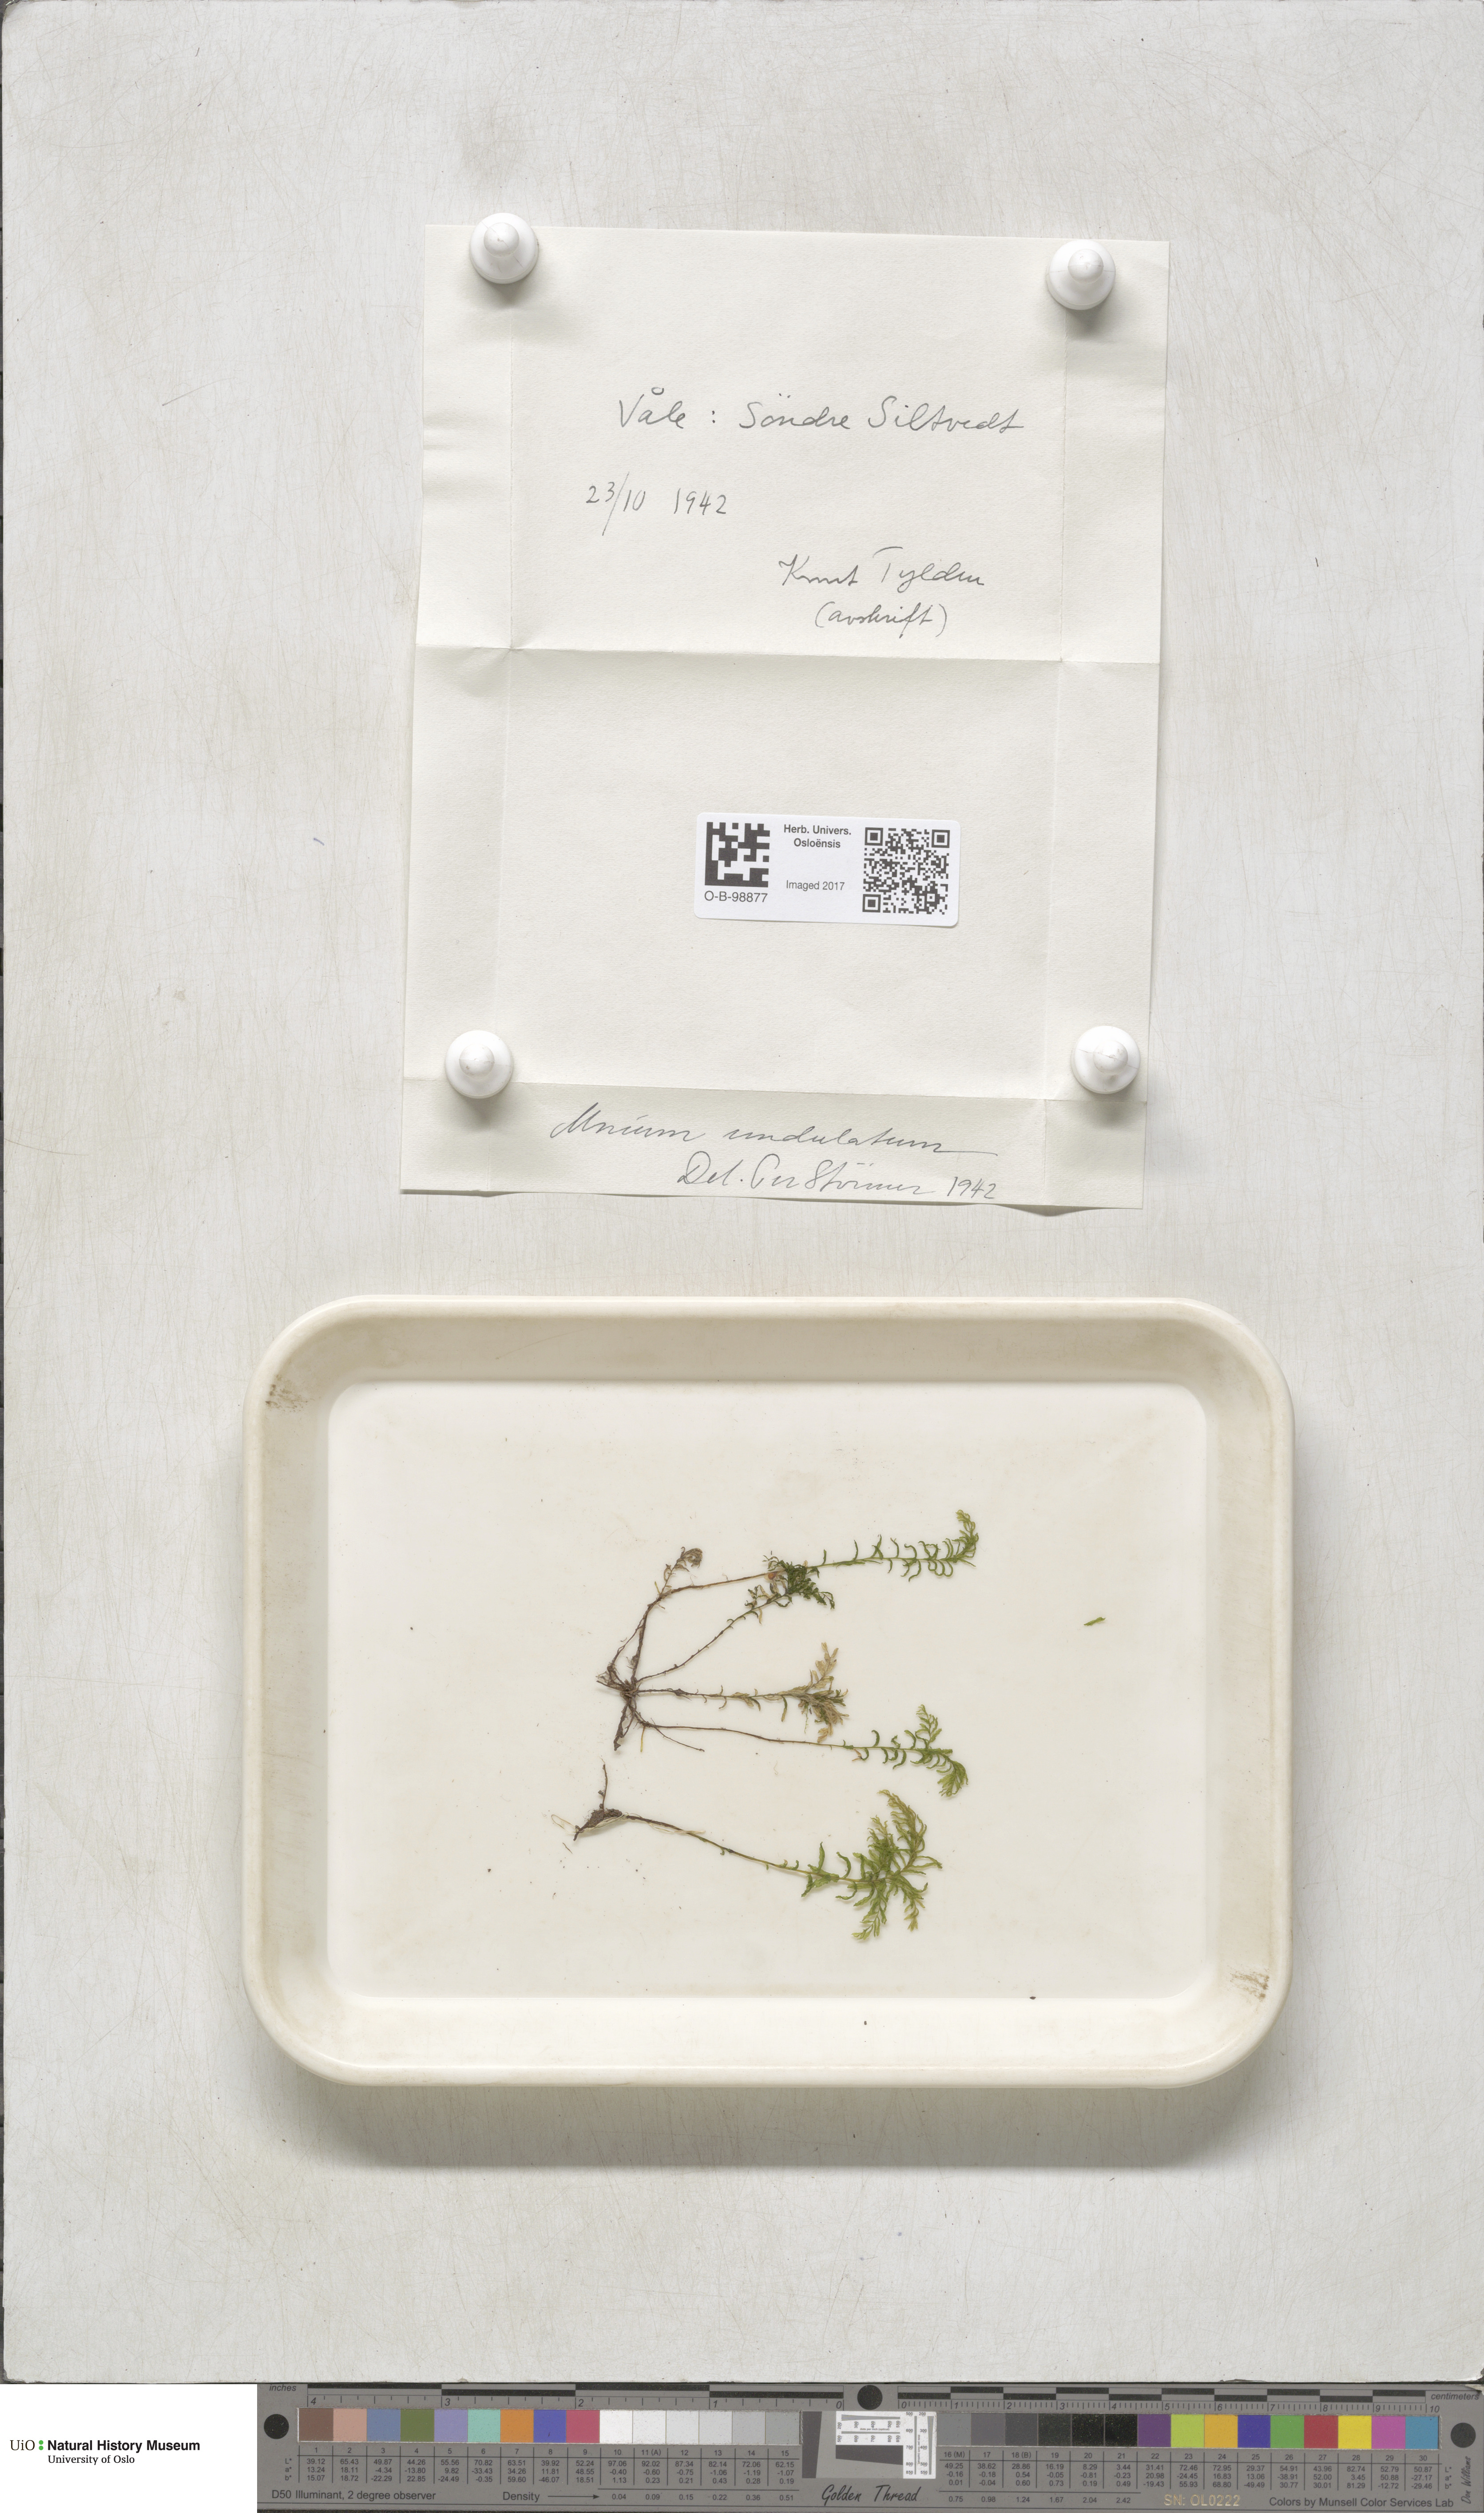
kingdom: Plantae
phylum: Bryophyta
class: Bryopsida
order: Bryales
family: Mniaceae
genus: Plagiomnium
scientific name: Plagiomnium undulatum
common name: Hart's-tongue thyme-moss
